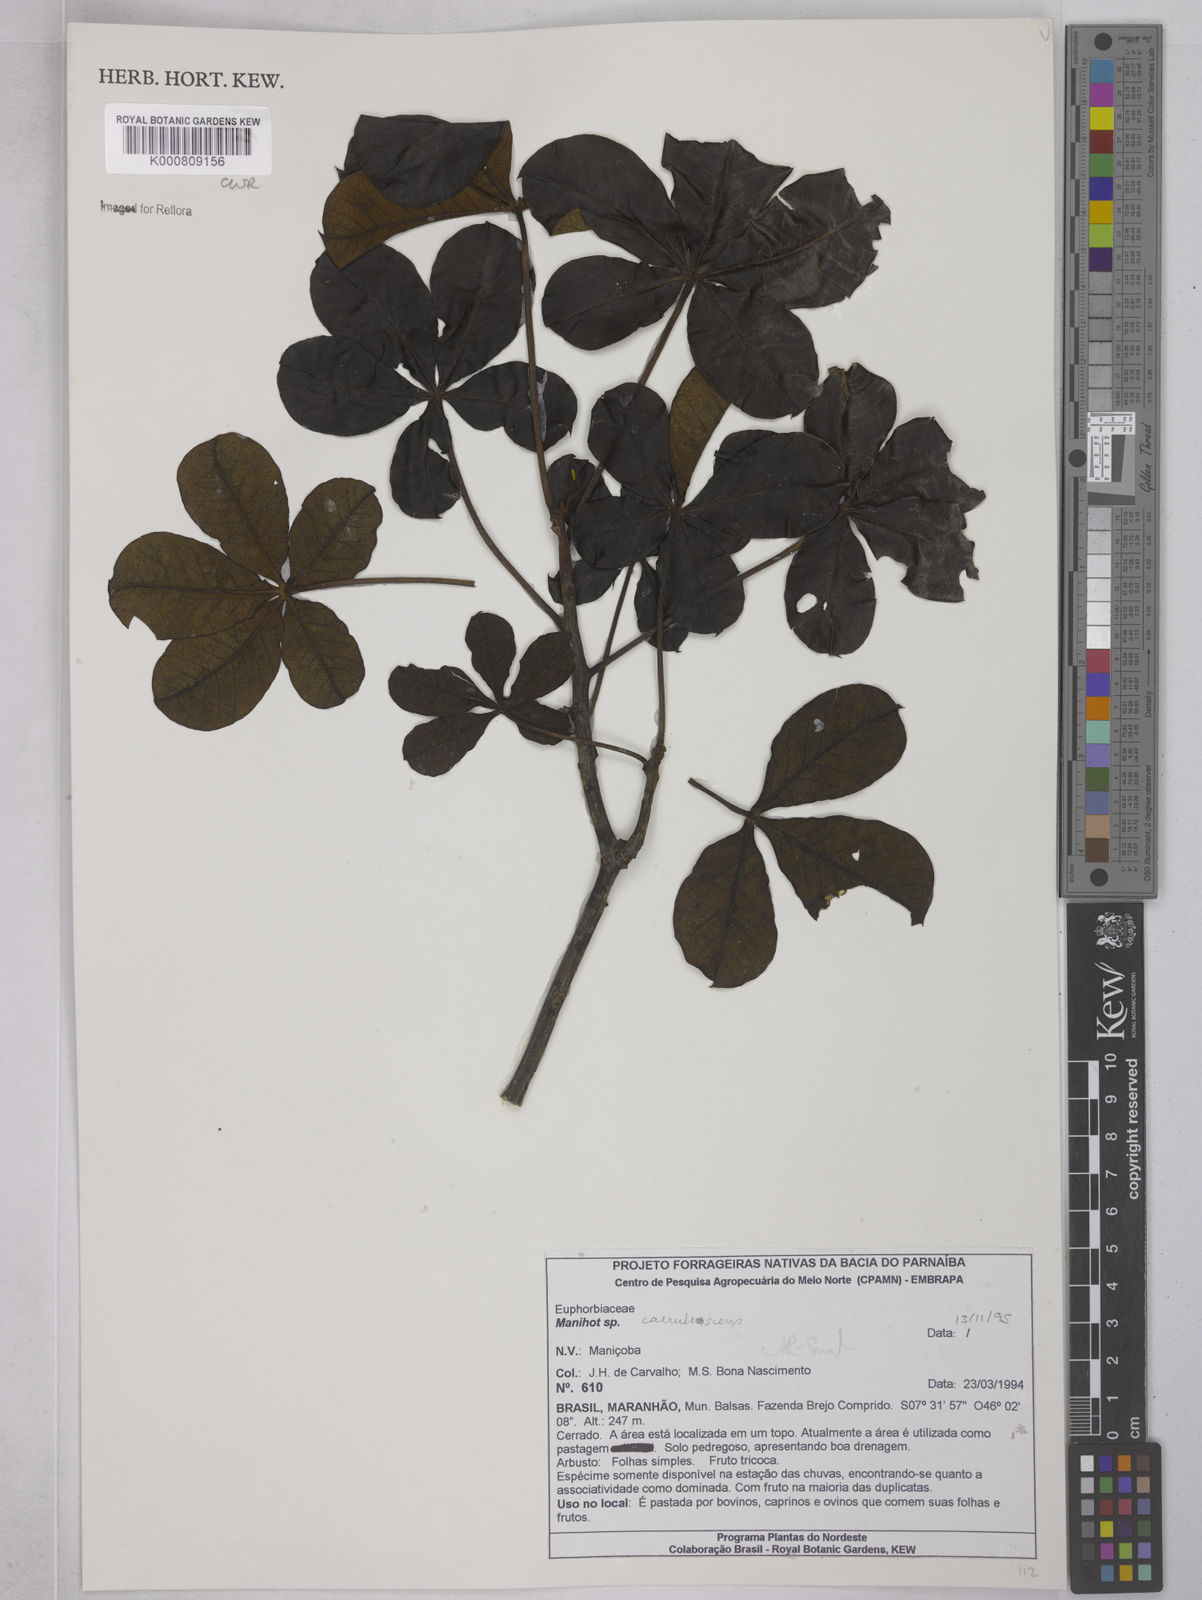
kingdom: Plantae
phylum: Tracheophyta
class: Magnoliopsida
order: Malpighiales
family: Euphorbiaceae
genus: Manihot
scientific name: Manihot caerulescens
